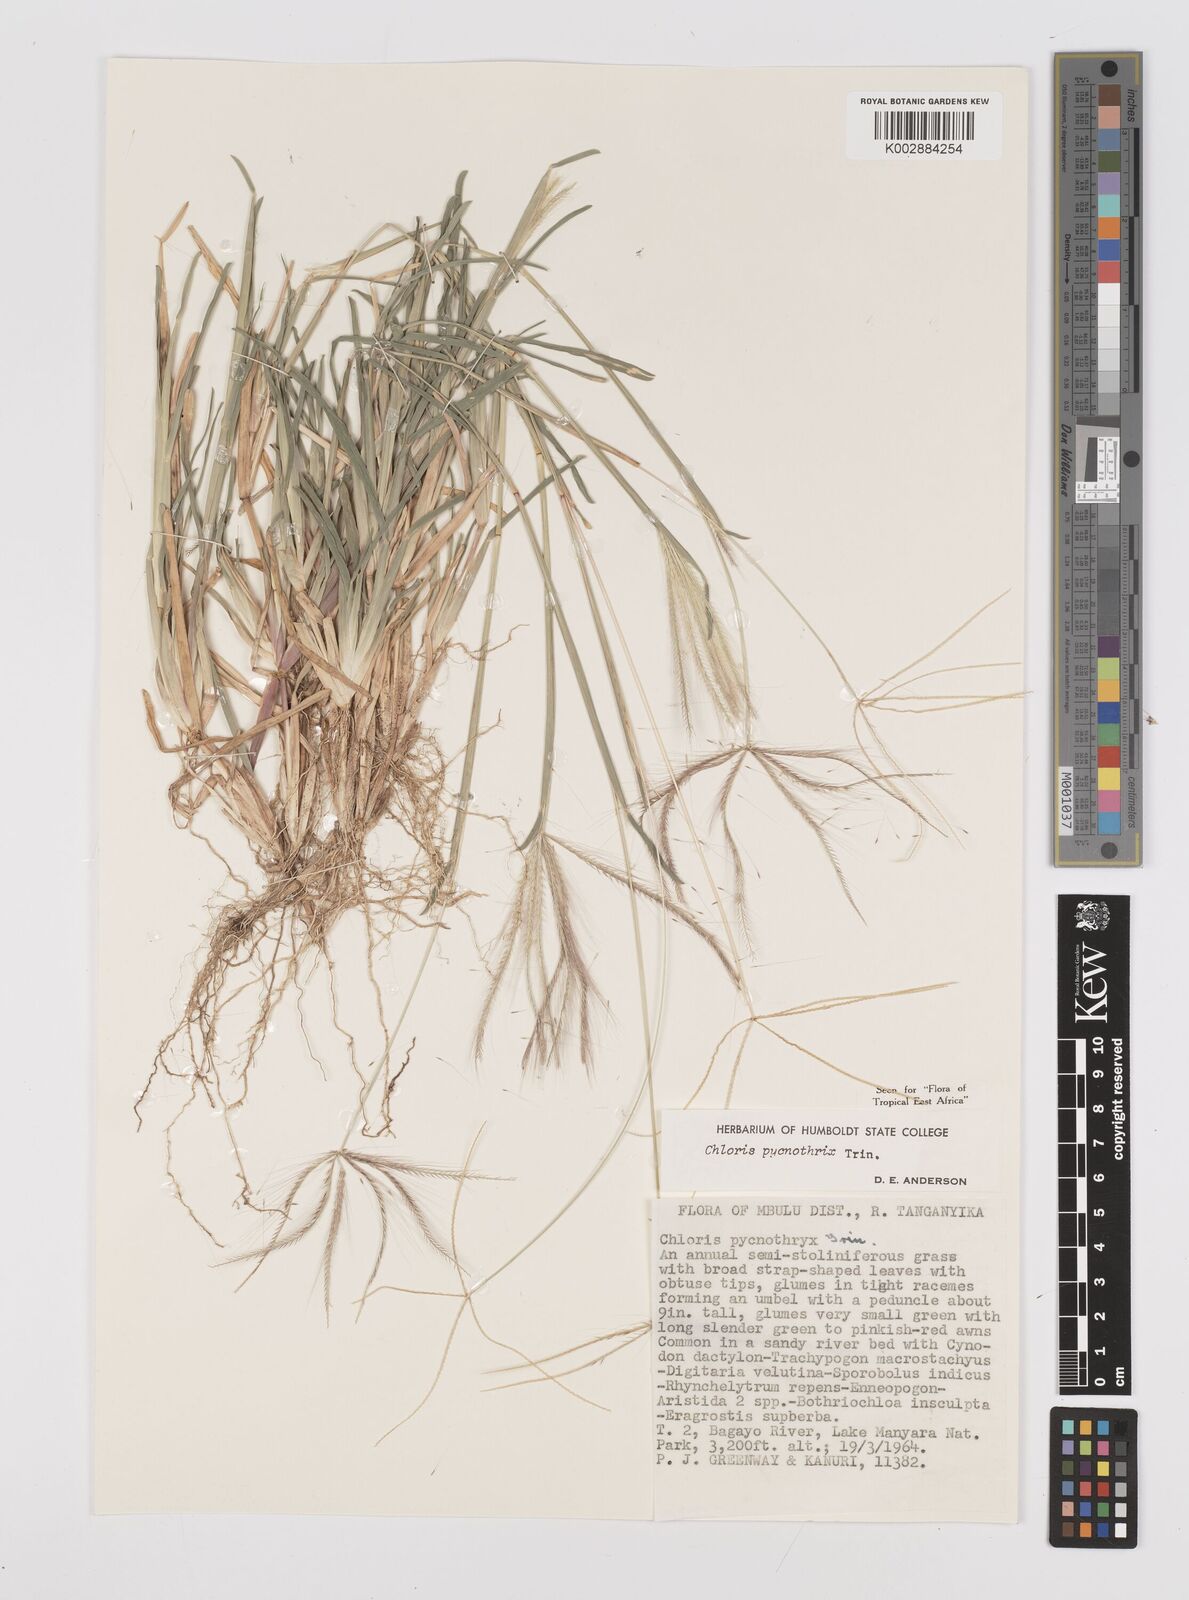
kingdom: Plantae
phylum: Tracheophyta
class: Liliopsida
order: Poales
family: Poaceae
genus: Chloris
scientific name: Chloris pycnothrix
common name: Spiderweb chloris
